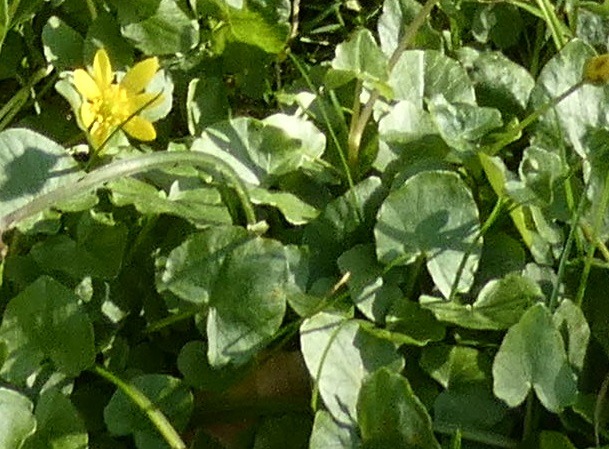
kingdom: Plantae
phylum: Tracheophyta
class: Magnoliopsida
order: Ranunculales
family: Ranunculaceae
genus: Ficaria
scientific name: Ficaria verna
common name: Vorterod
